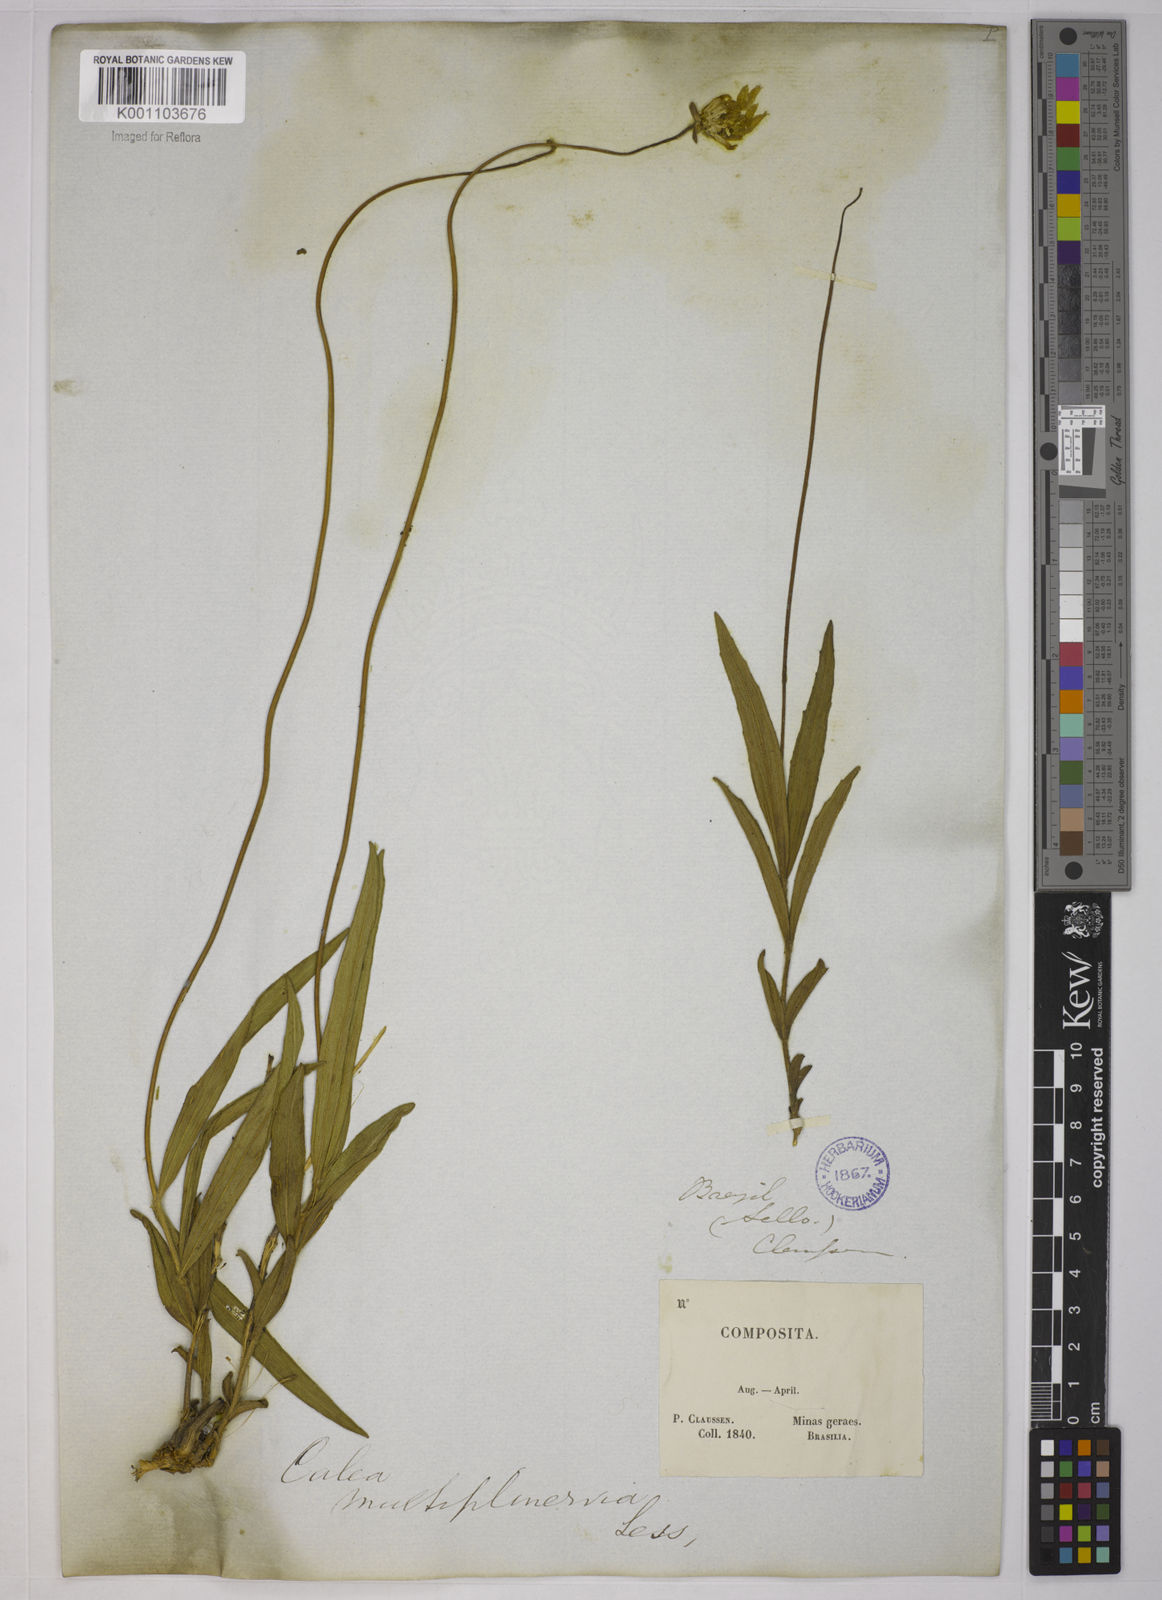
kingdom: Plantae
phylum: Tracheophyta
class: Magnoliopsida
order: Asterales
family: Asteraceae
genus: Calea
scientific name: Calea multiplinervia
